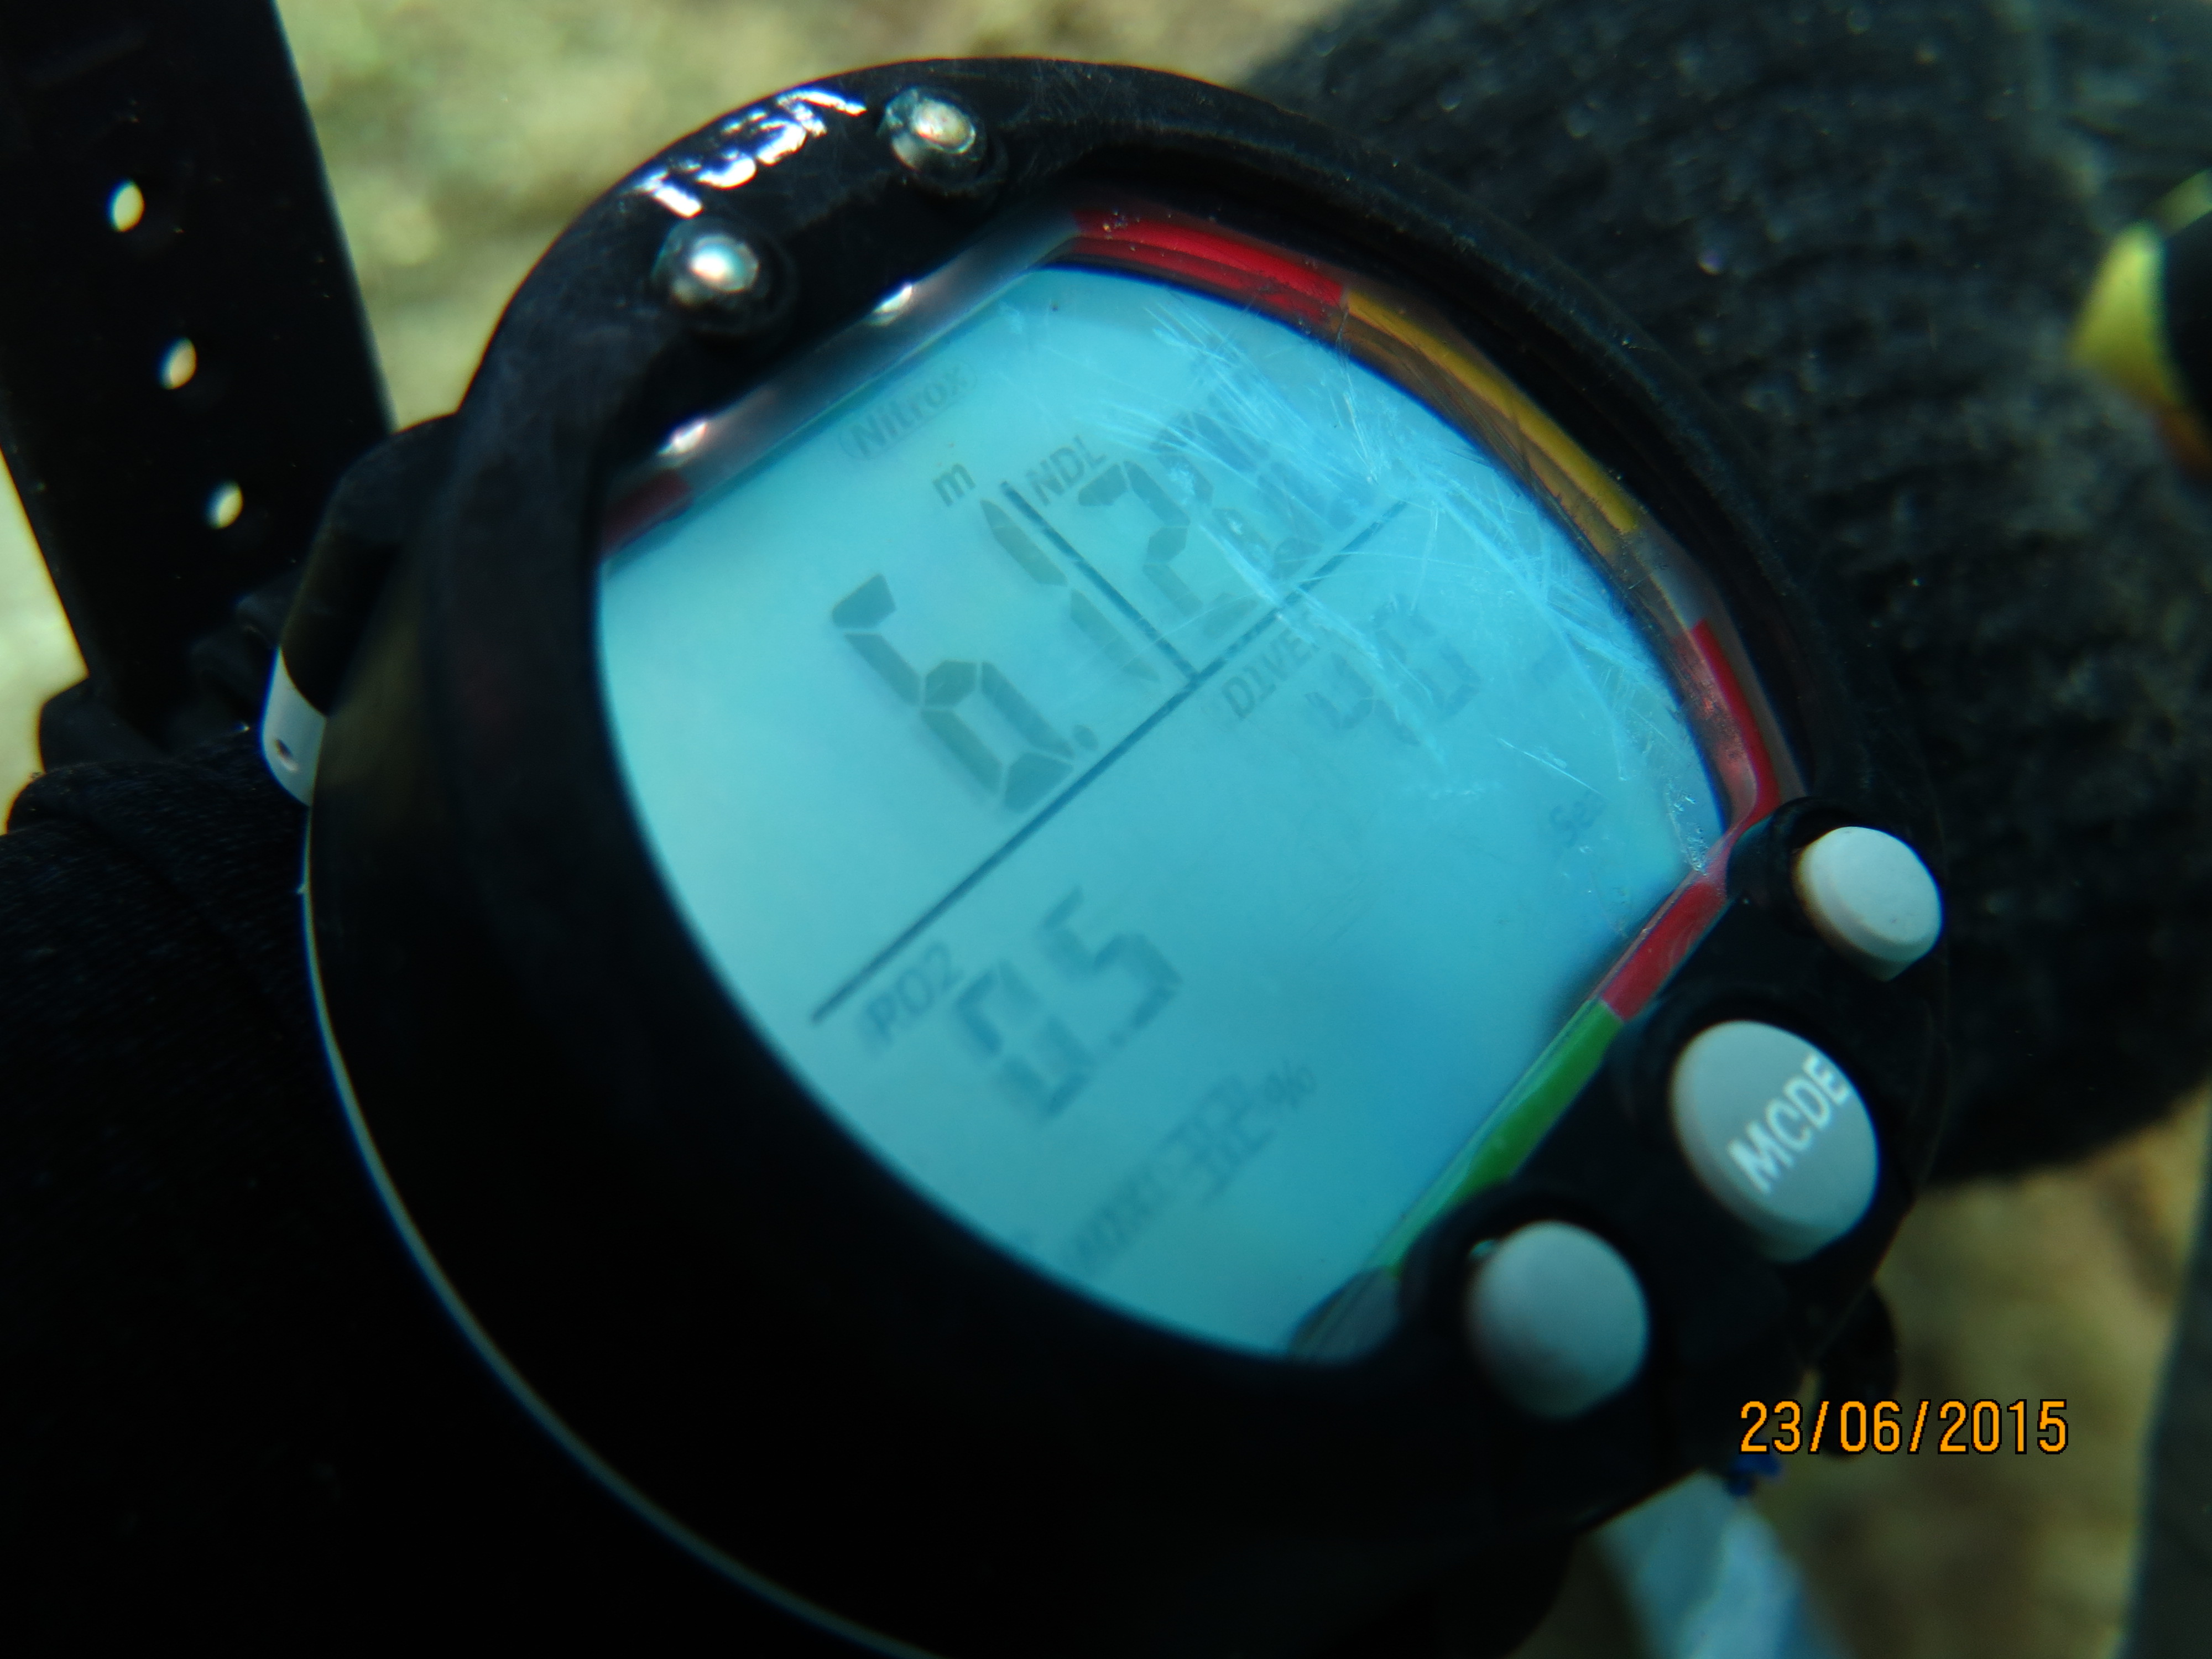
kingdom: Animalia
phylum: Cnidaria
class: Anthozoa
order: Scleractinia
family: Poritidae
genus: Porites
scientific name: Porites astreoides
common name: Mustard hill coral
